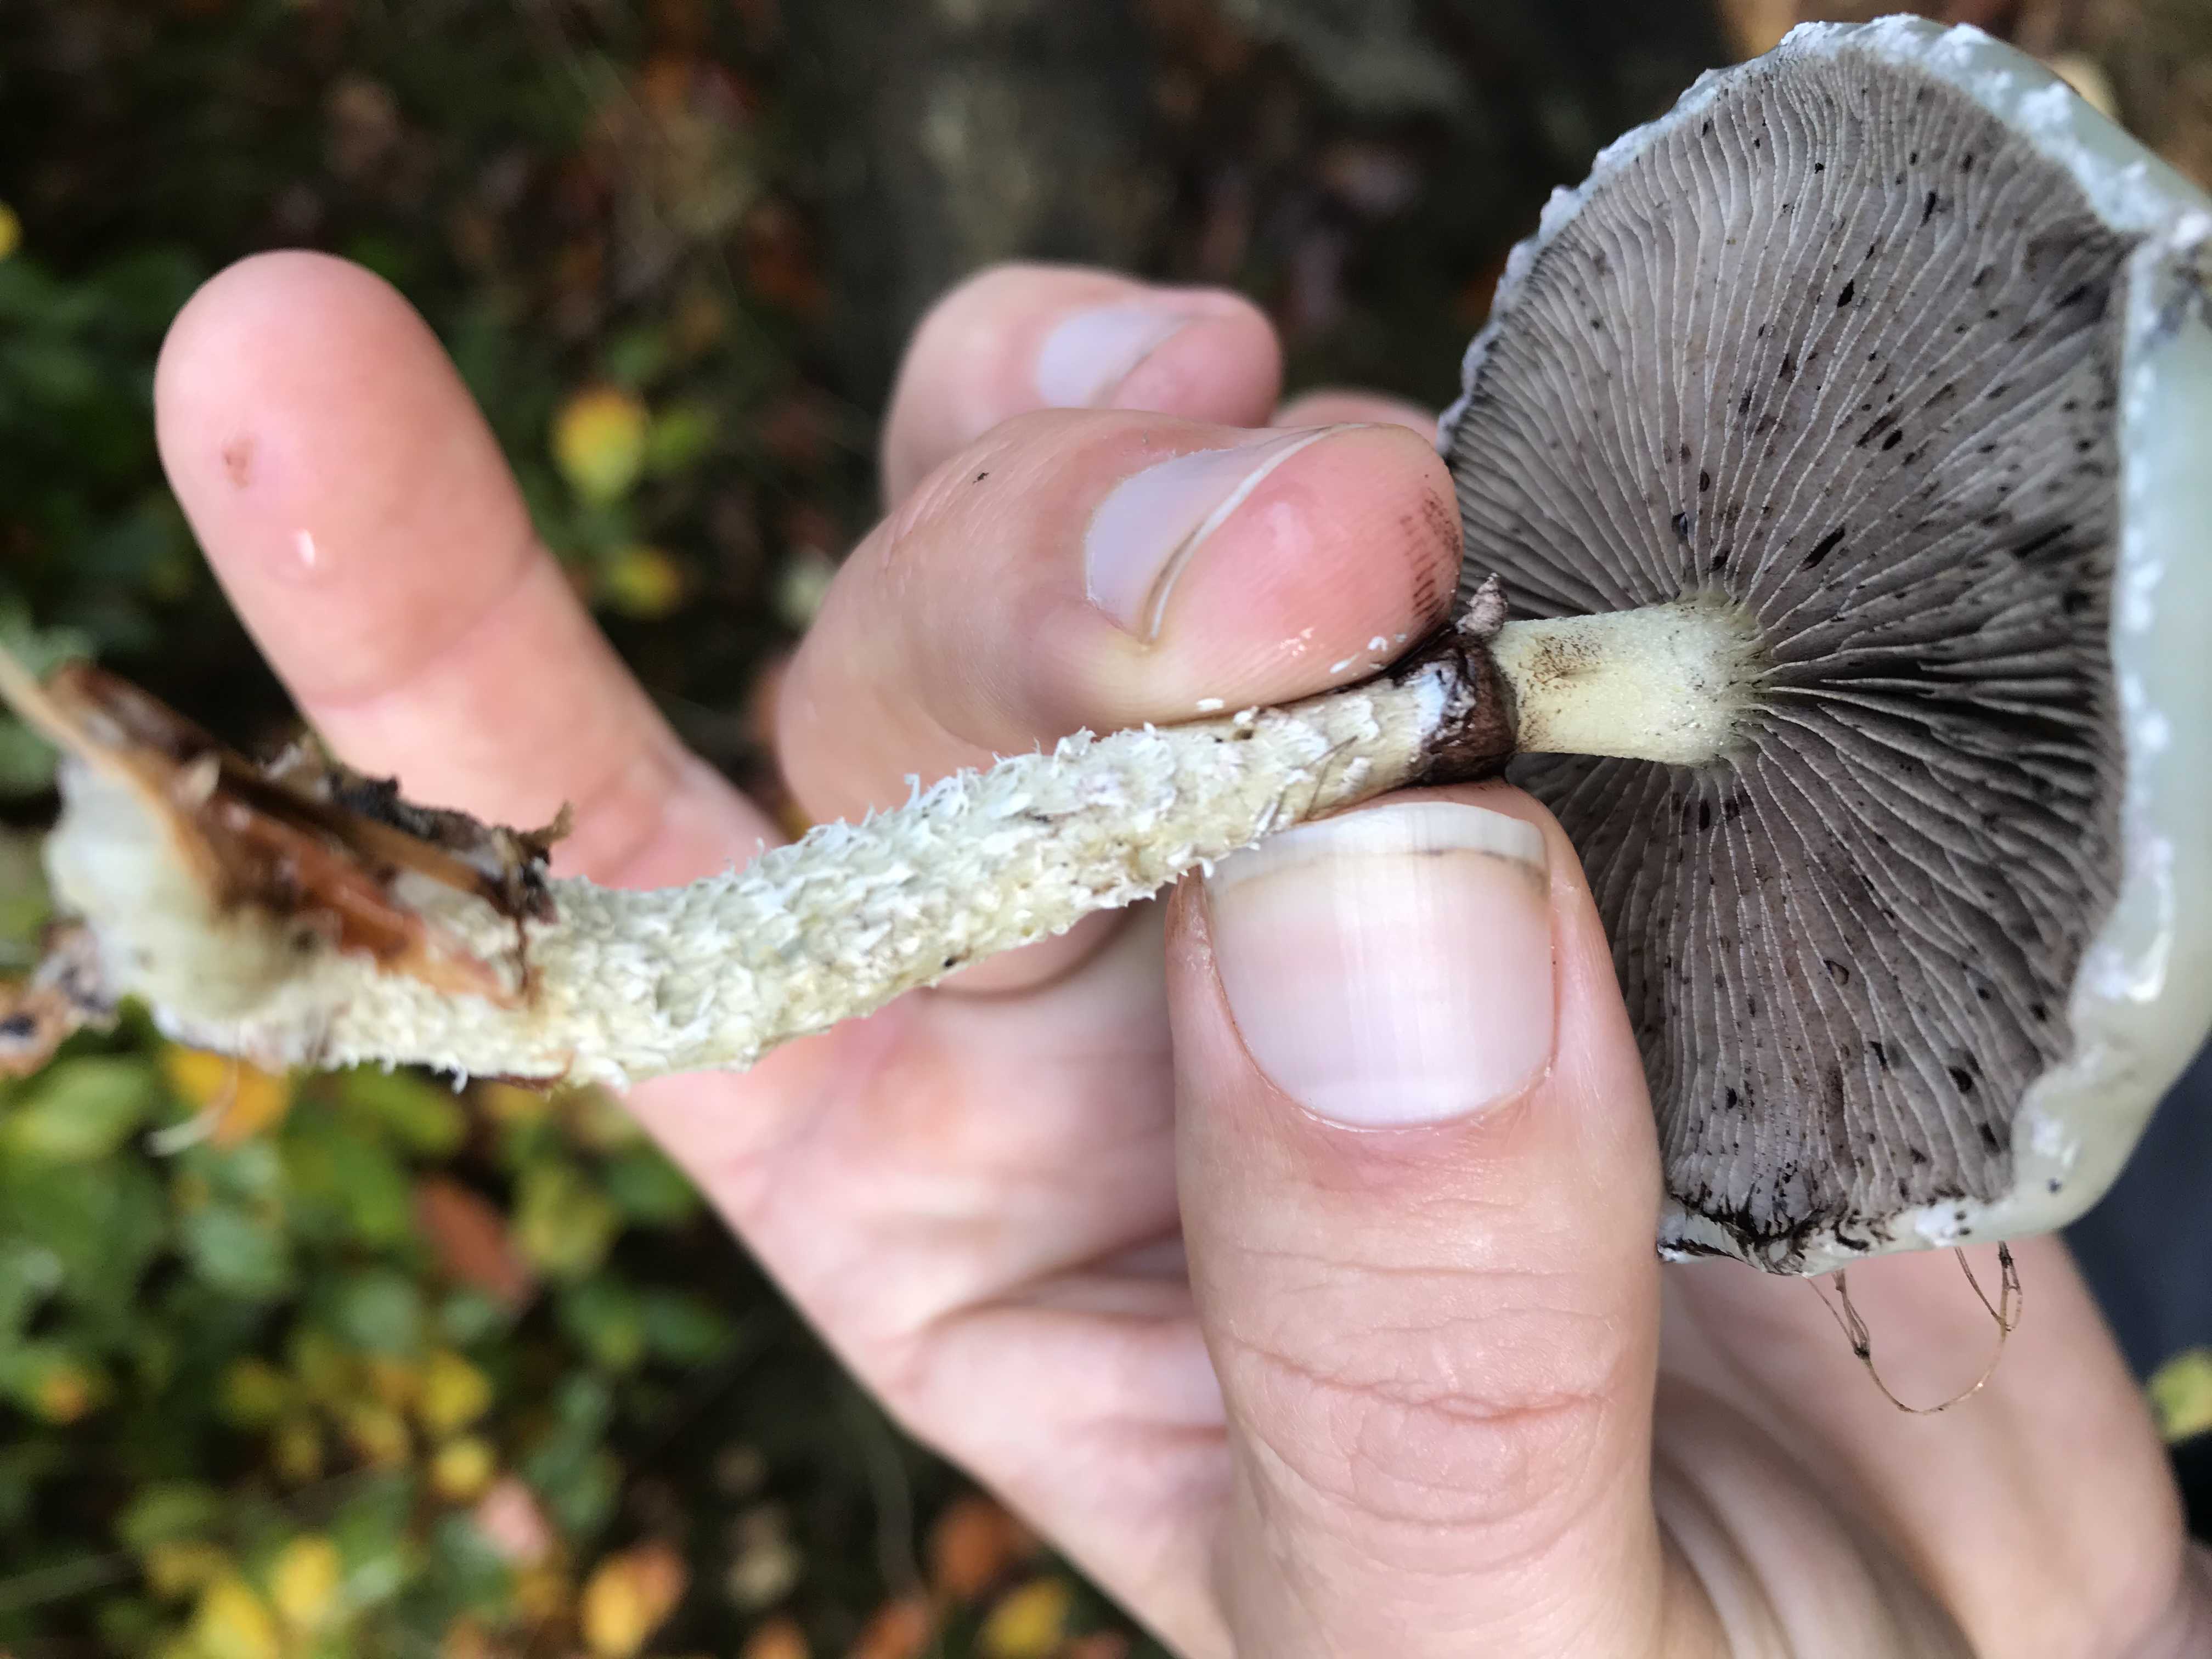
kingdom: Fungi
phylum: Basidiomycota
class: Agaricomycetes
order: Agaricales
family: Strophariaceae
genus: Stropharia
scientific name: Stropharia aeruginosa
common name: spanskgrøn bredblad
